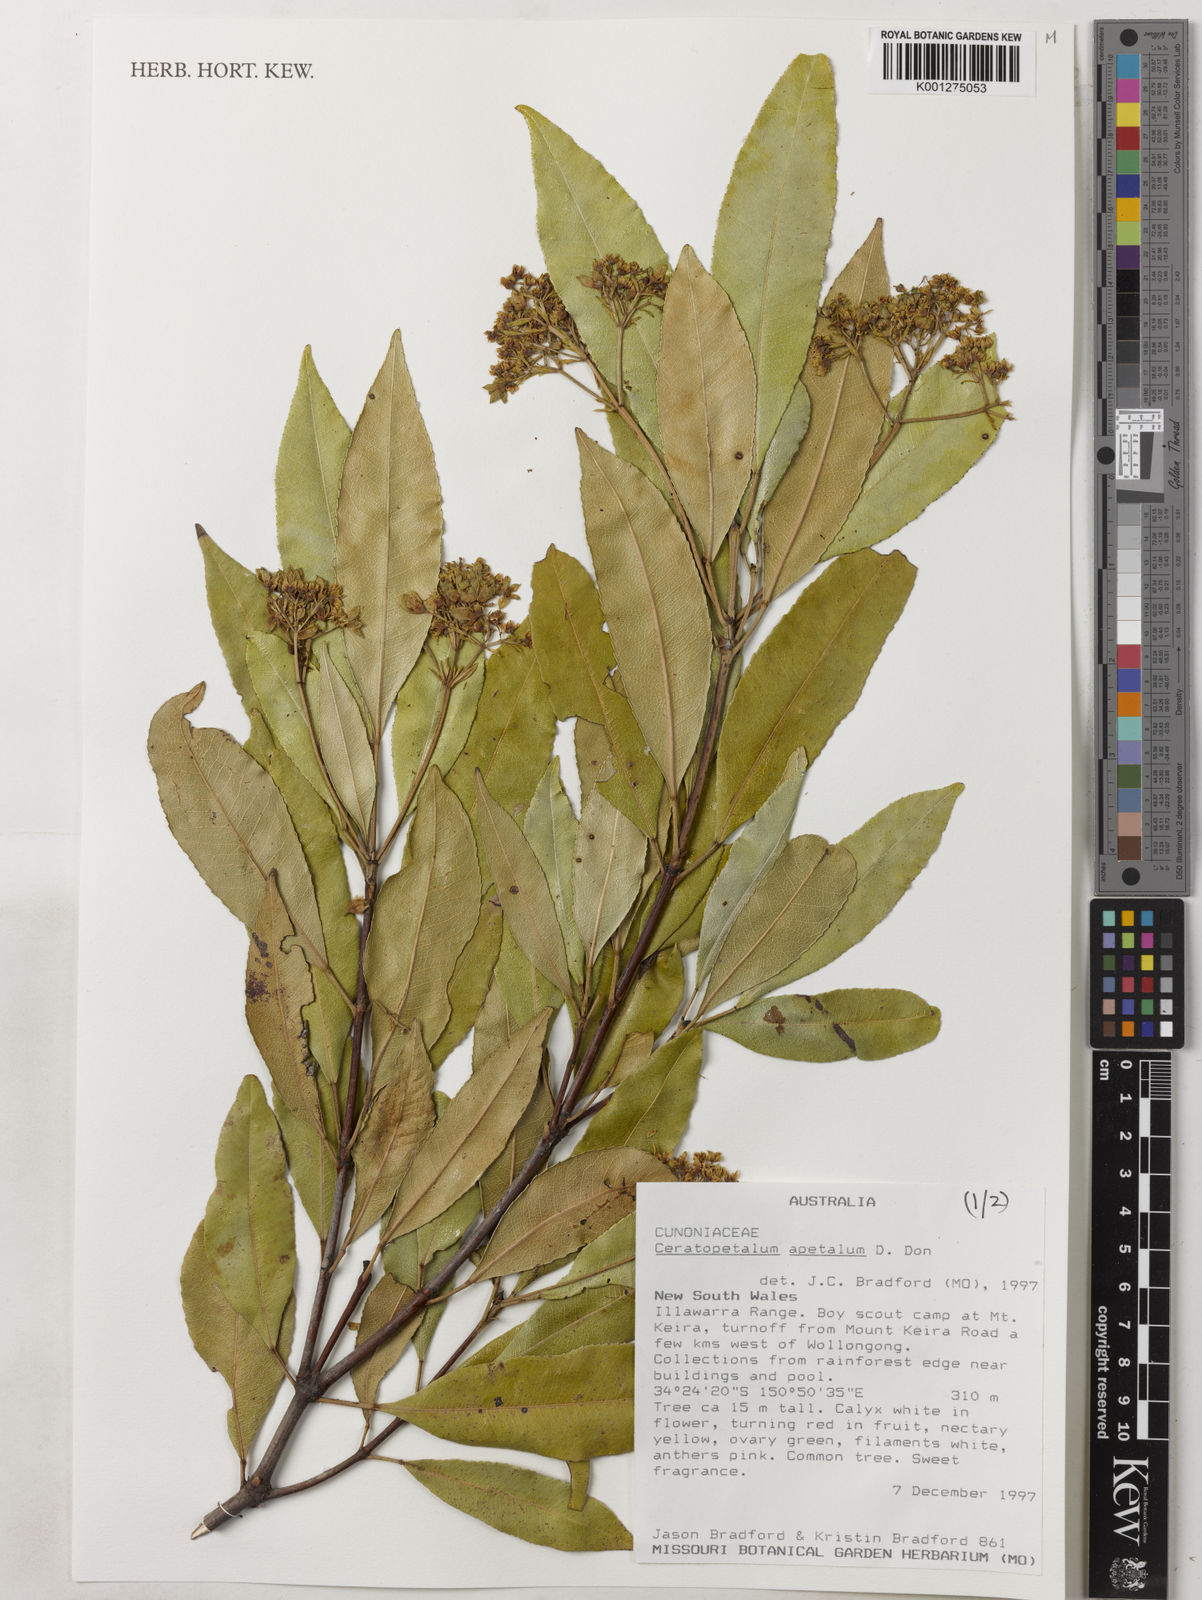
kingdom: Plantae
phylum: Tracheophyta
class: Magnoliopsida
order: Oxalidales
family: Cunoniaceae
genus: Ceratopetalum
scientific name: Ceratopetalum apetalum
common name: Scented satinwood
